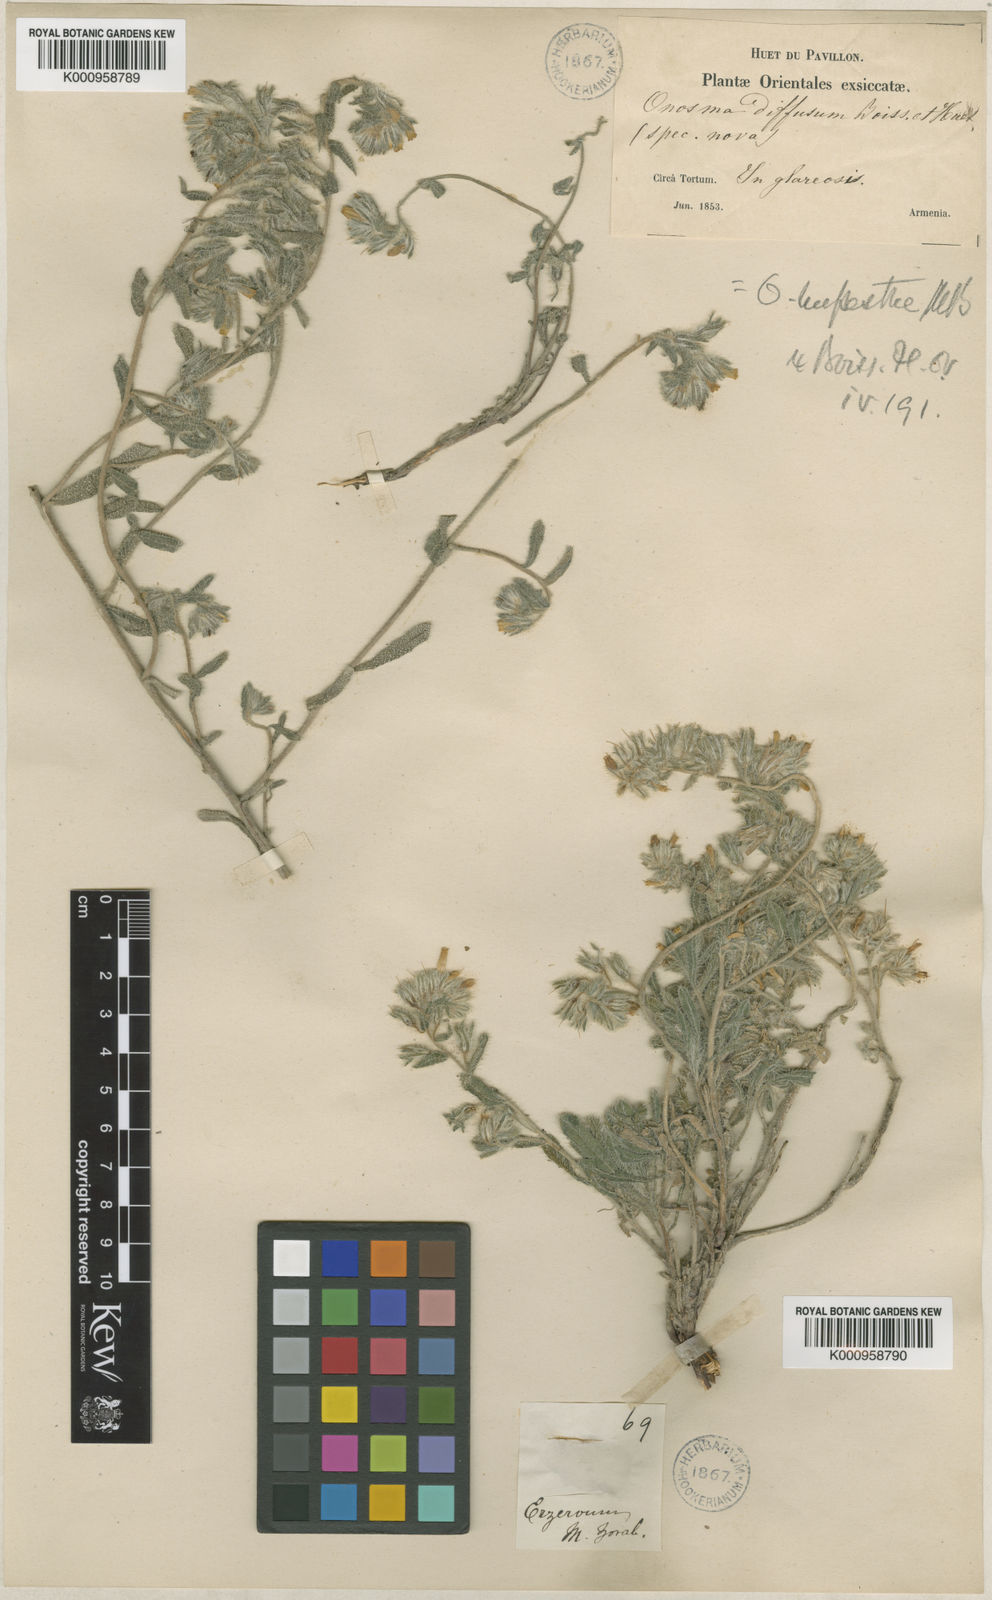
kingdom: Plantae
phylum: Tracheophyta
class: Magnoliopsida
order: Boraginales
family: Boraginaceae
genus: Onosma
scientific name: Onosma tenuiflora
